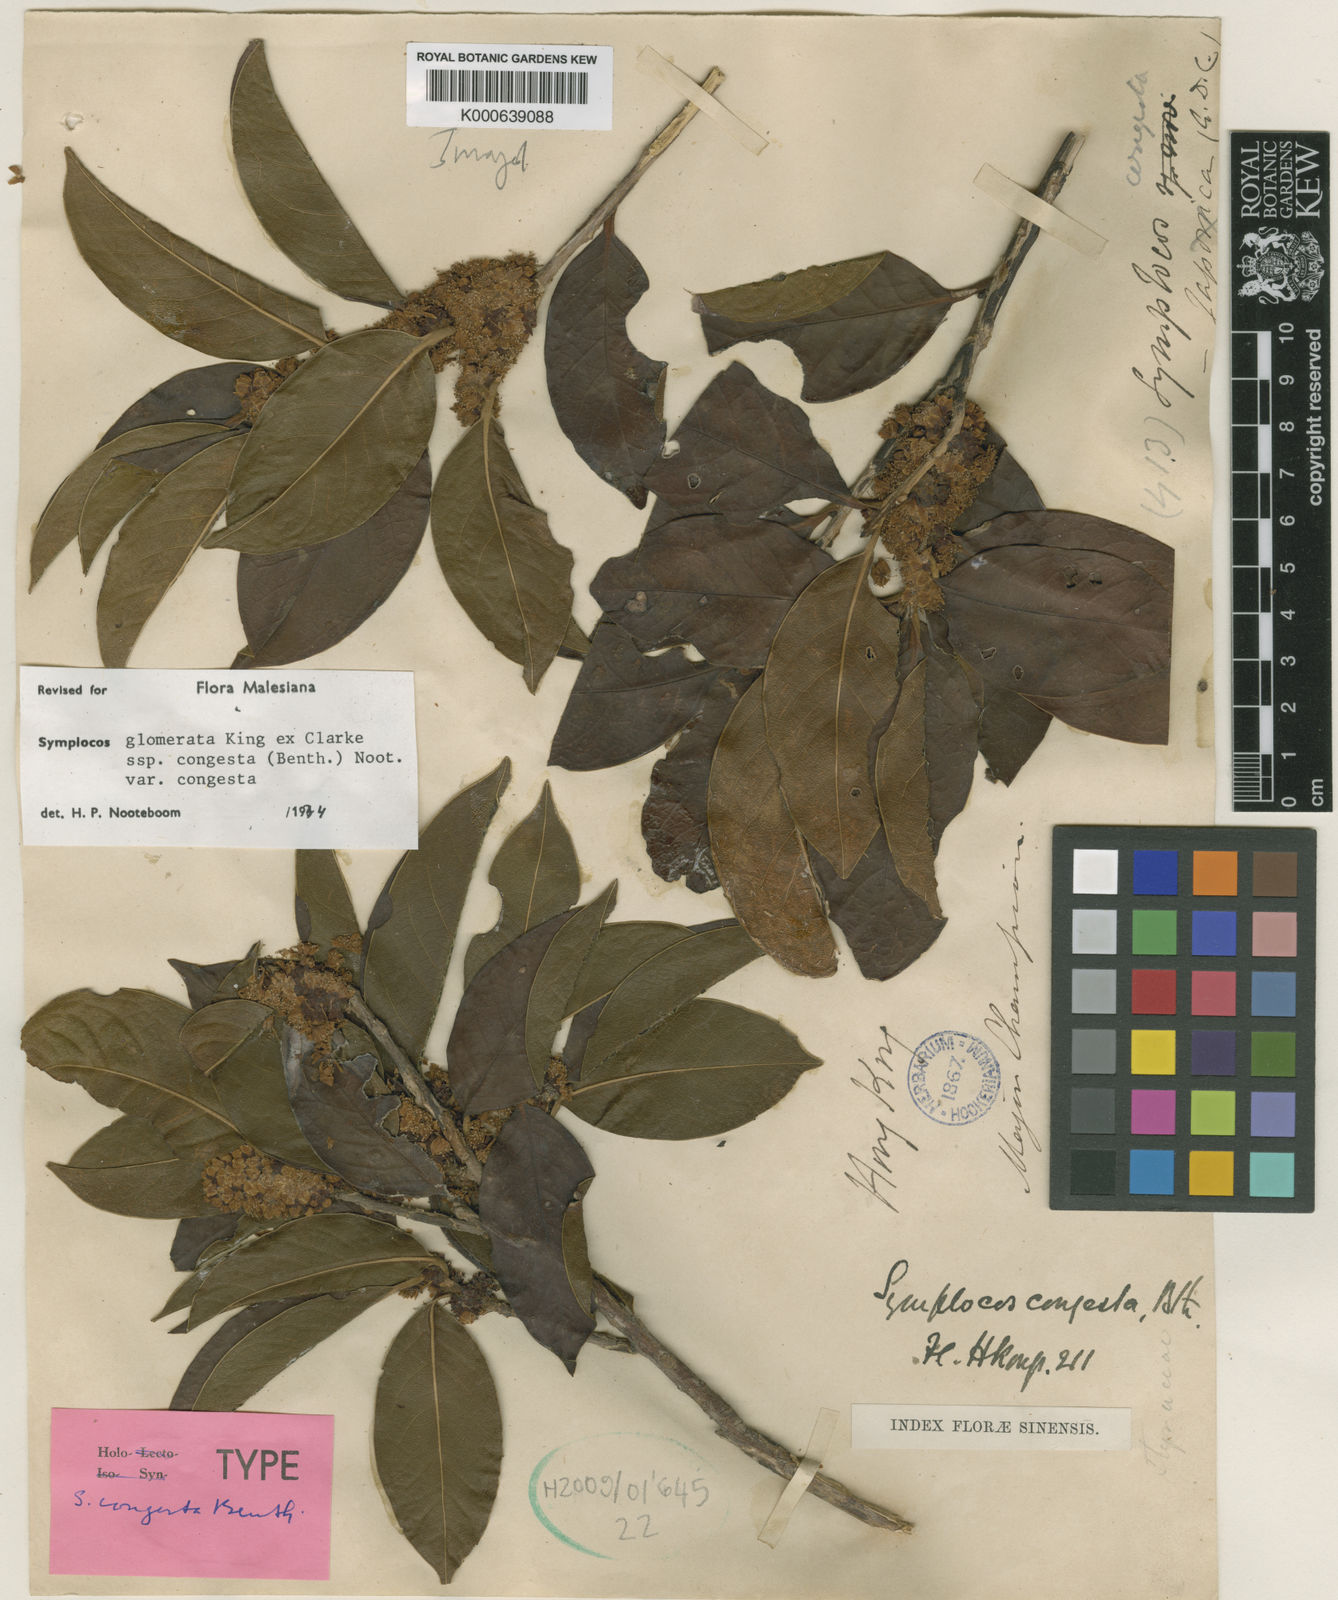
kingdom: Plantae
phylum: Tracheophyta
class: Magnoliopsida
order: Ericales
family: Symplocaceae
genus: Symplocos
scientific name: Symplocos glauca
